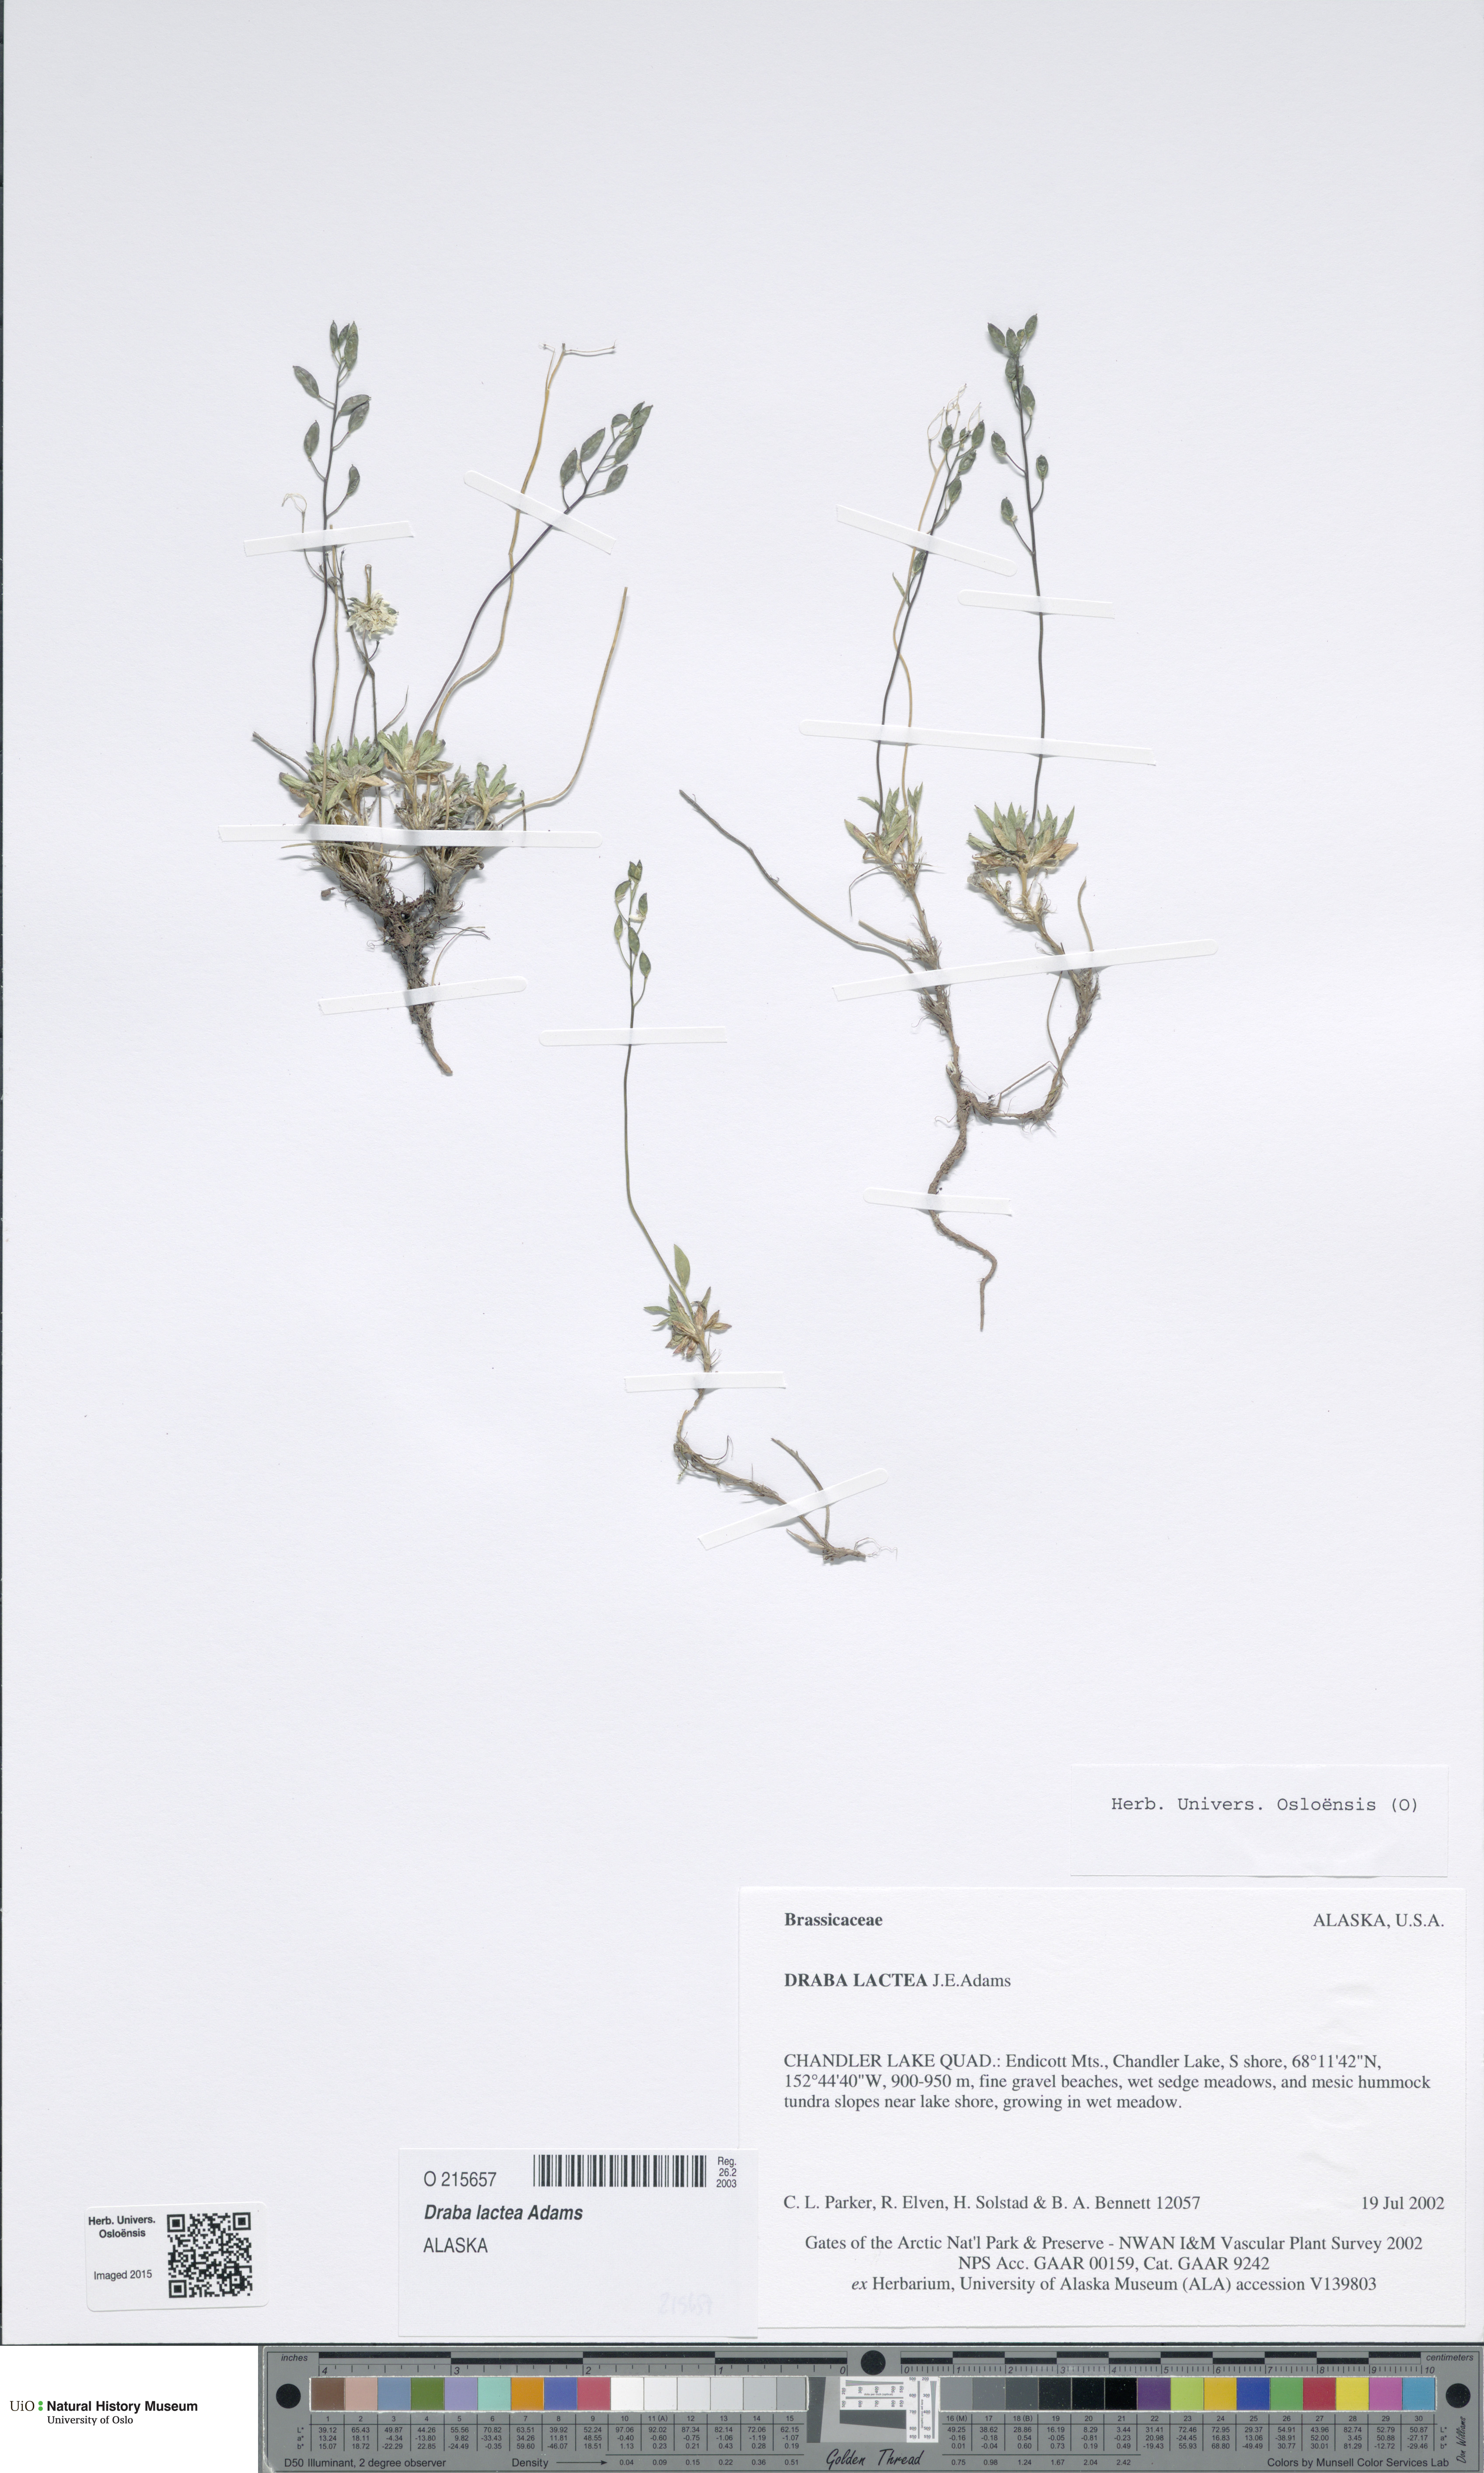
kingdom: Plantae
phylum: Tracheophyta
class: Magnoliopsida
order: Brassicales
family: Brassicaceae
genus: Draba
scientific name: Draba lactea
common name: Milky draba
